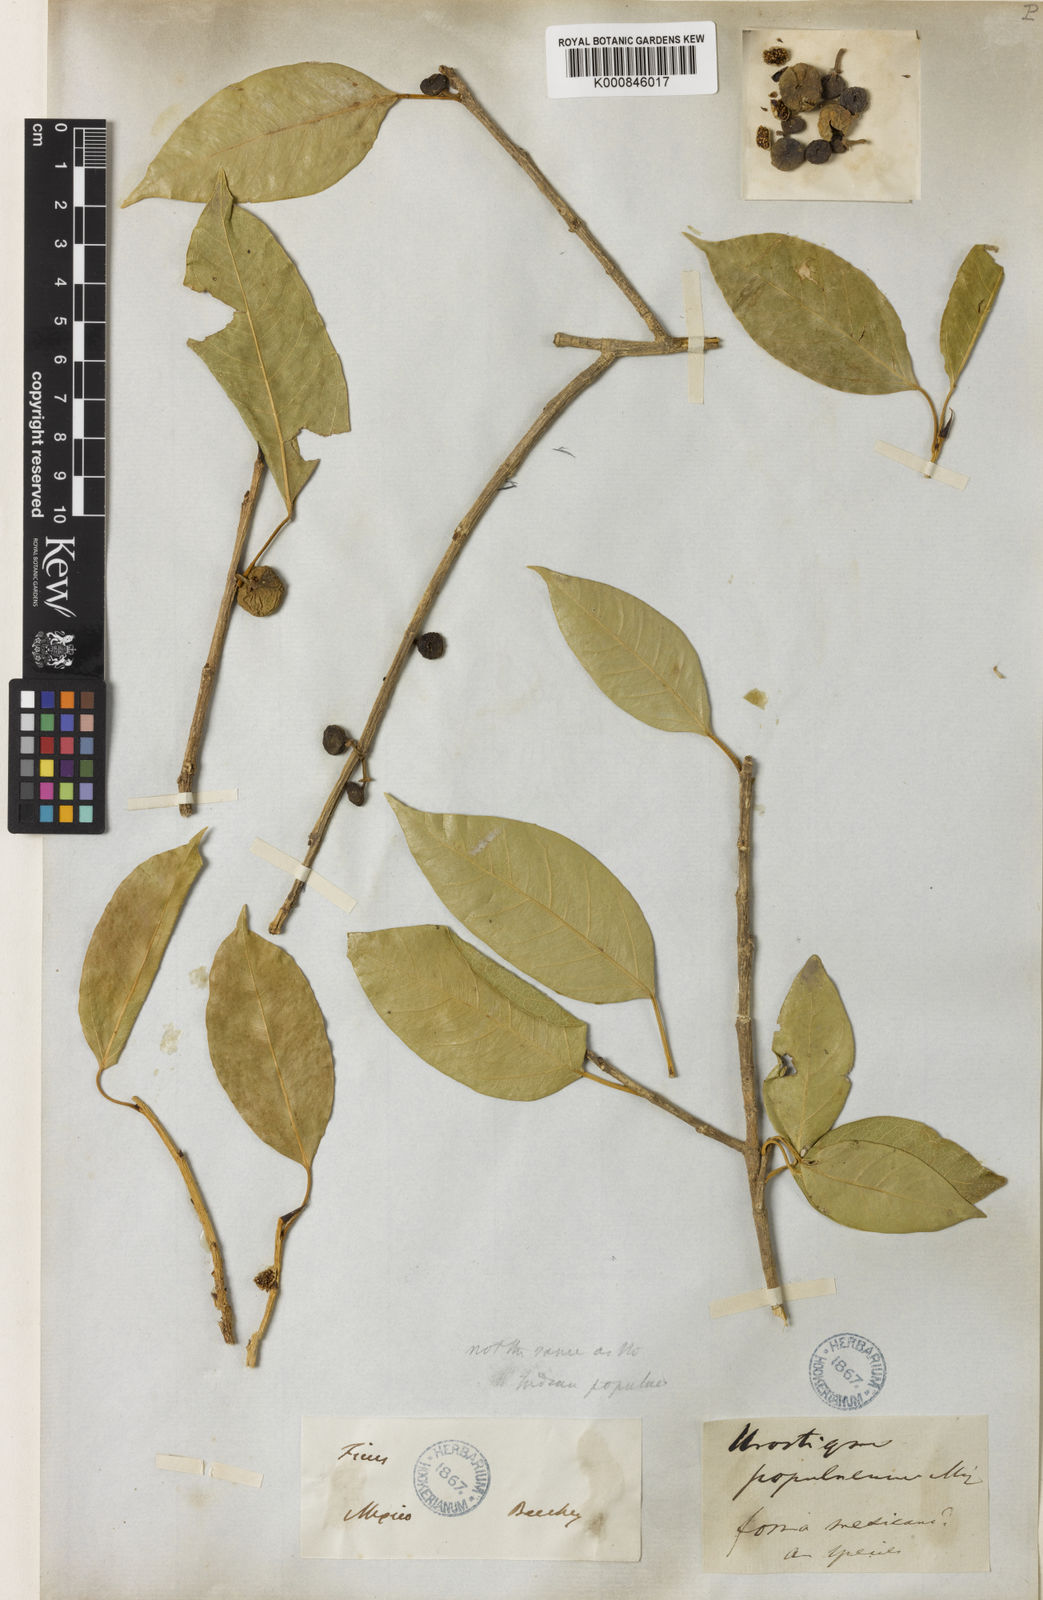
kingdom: Plantae
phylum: Tracheophyta
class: Magnoliopsida
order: Rosales
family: Moraceae
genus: Ficus
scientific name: Ficus citrifolia
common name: Strangler fig
